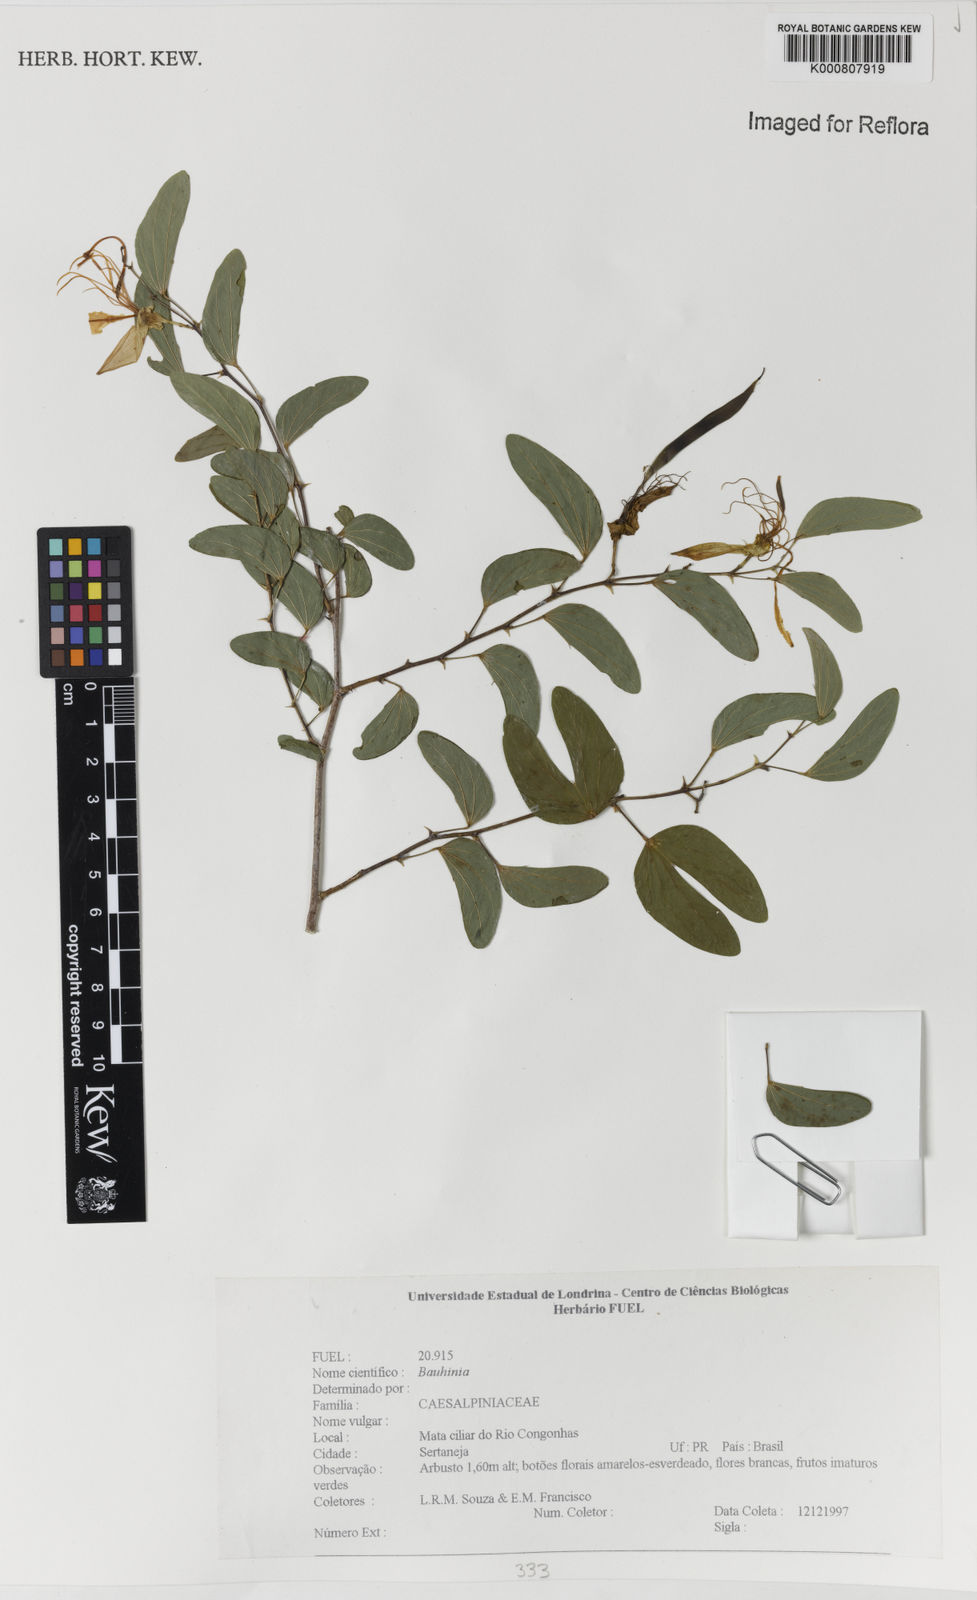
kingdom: Plantae
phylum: Tracheophyta
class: Magnoliopsida
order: Fabales
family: Fabaceae
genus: Bauhinia
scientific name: Bauhinia
